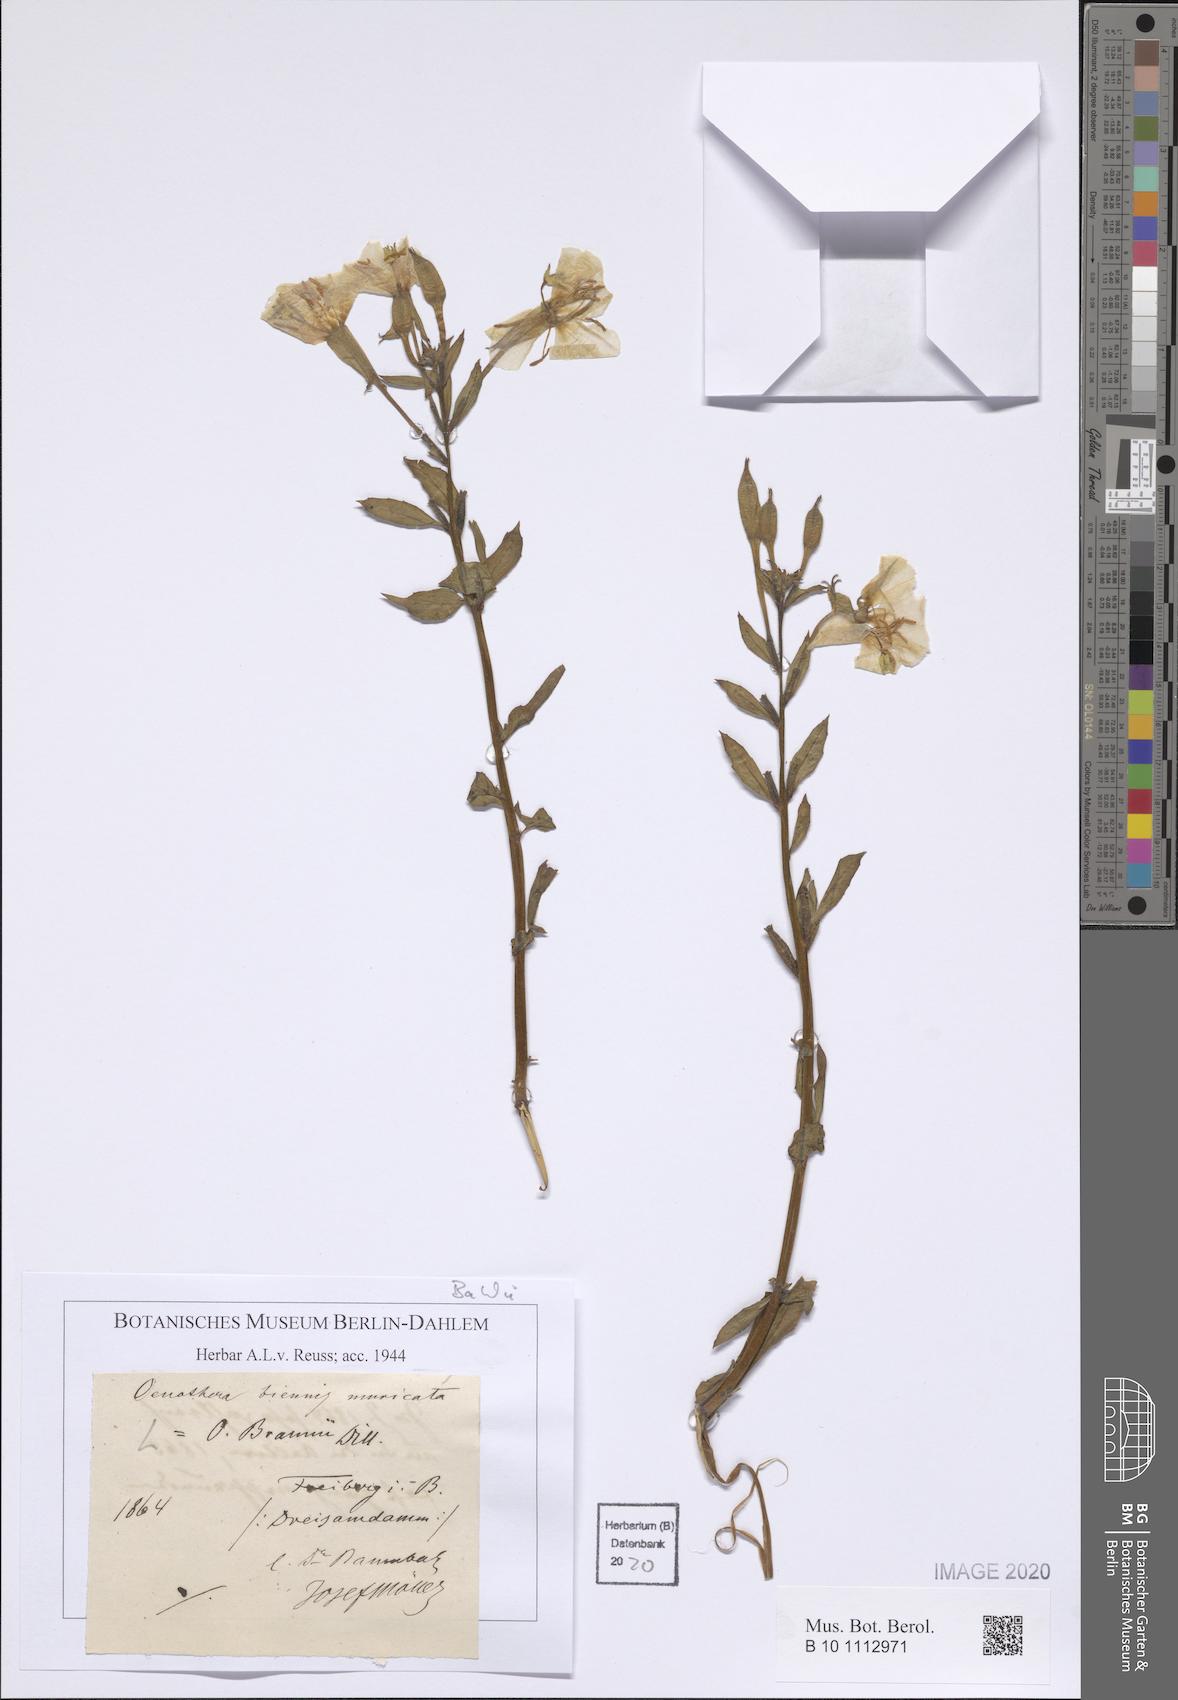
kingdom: Plantae
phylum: Tracheophyta
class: Magnoliopsida
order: Myrtales
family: Onagraceae
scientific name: Onagraceae
